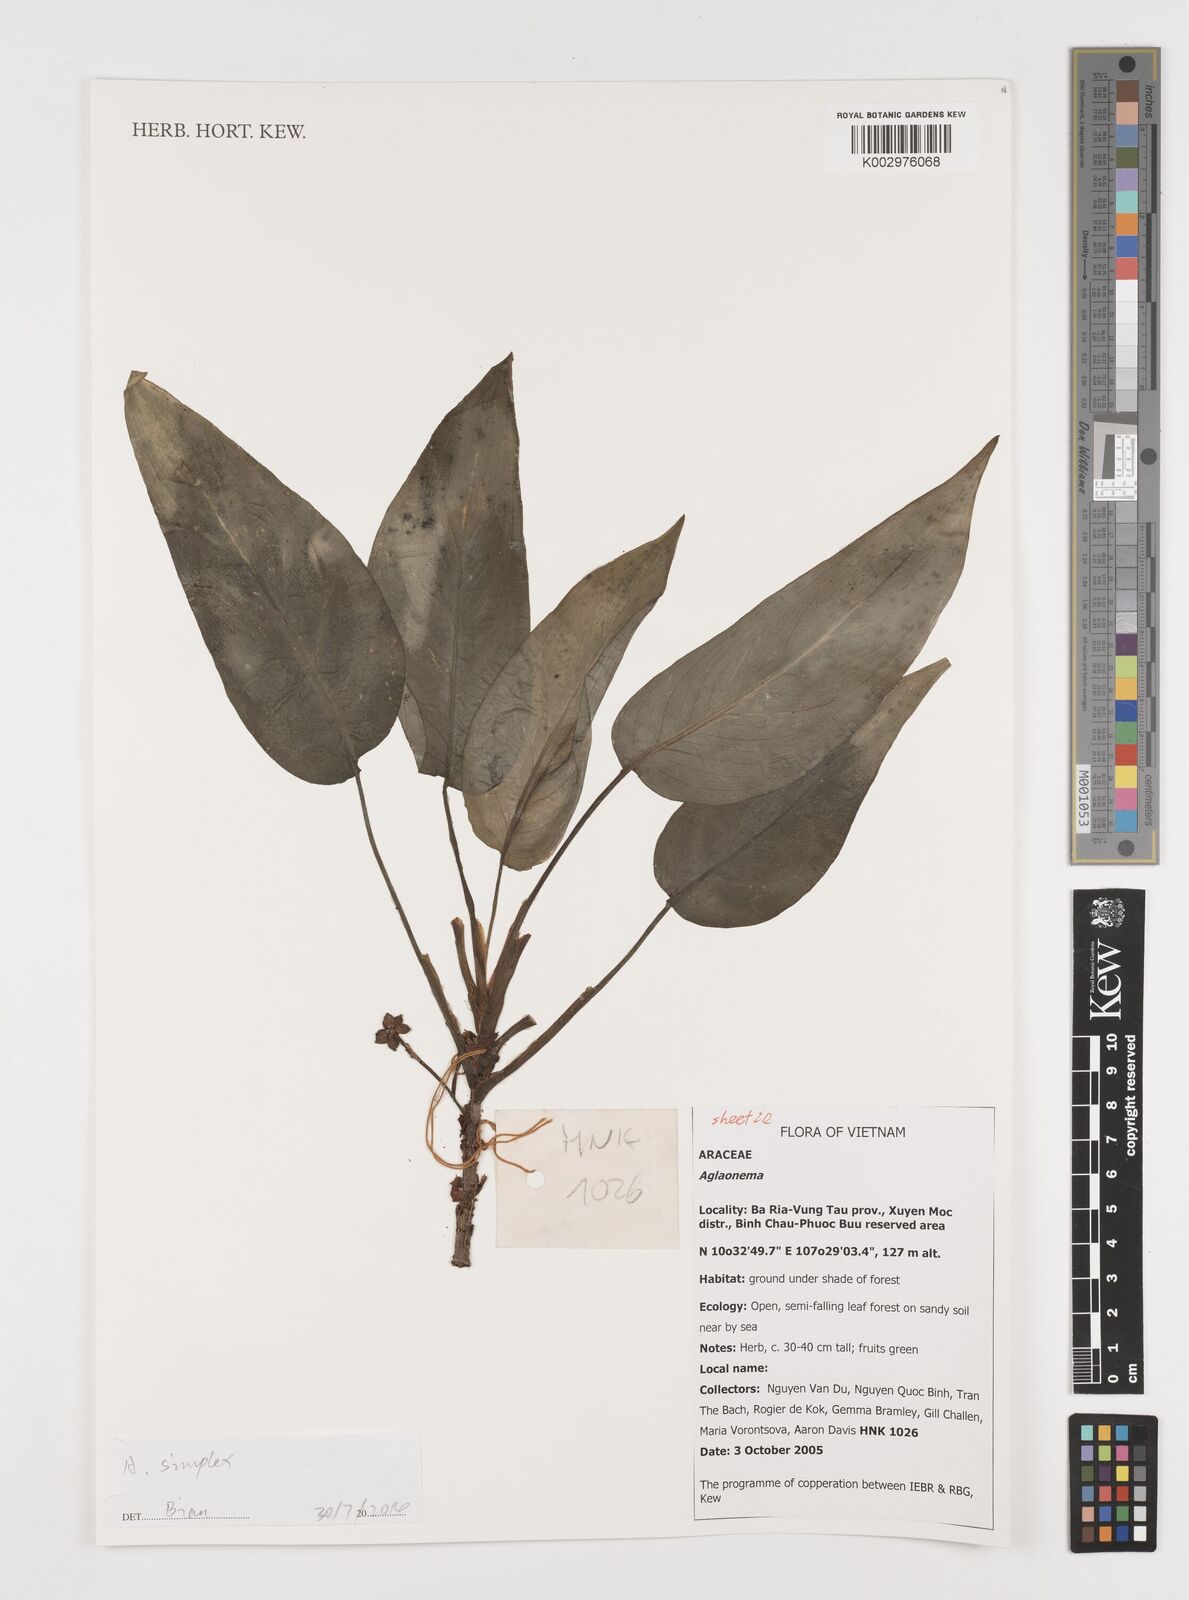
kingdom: Plantae
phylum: Tracheophyta
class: Liliopsida
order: Alismatales
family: Araceae
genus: Aglaonema
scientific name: Aglaonema simplex
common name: Malayan-sword
